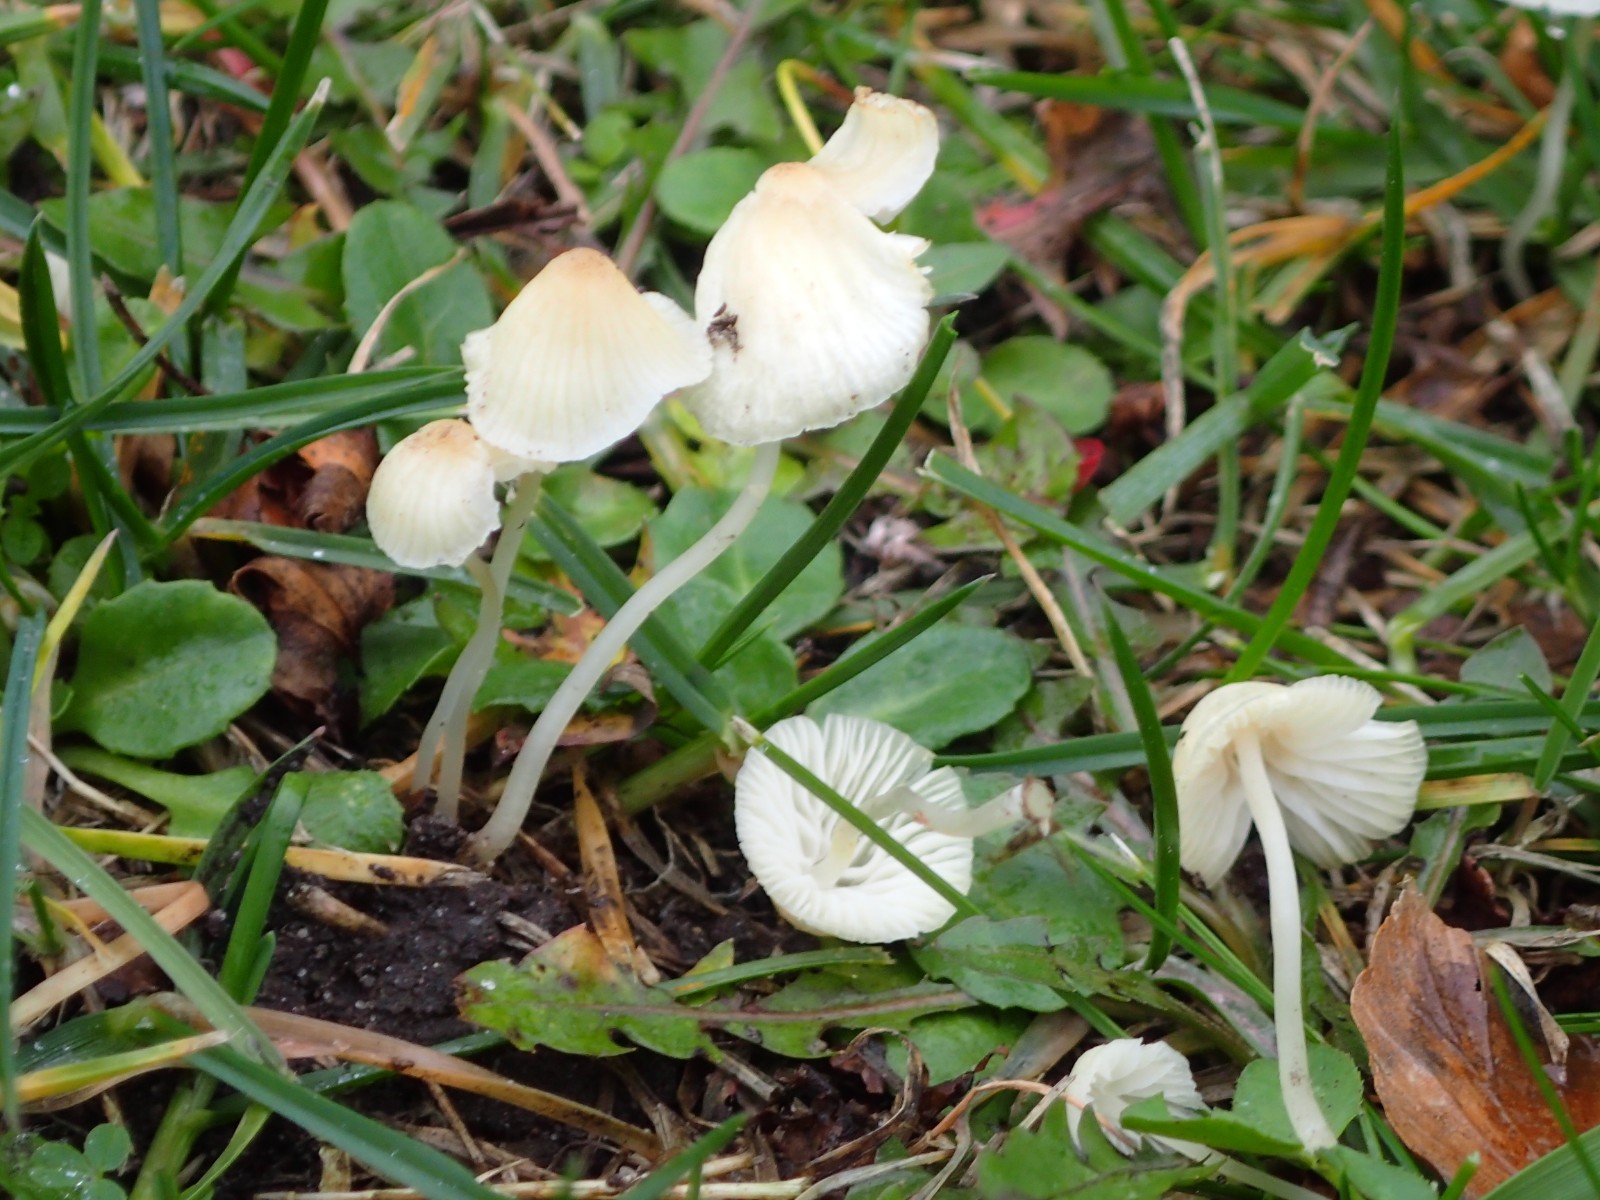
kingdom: Fungi
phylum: Basidiomycota
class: Agaricomycetes
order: Agaricales
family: Mycenaceae
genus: Atheniella
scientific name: Atheniella flavoalba
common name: gulhvid huesvamp
